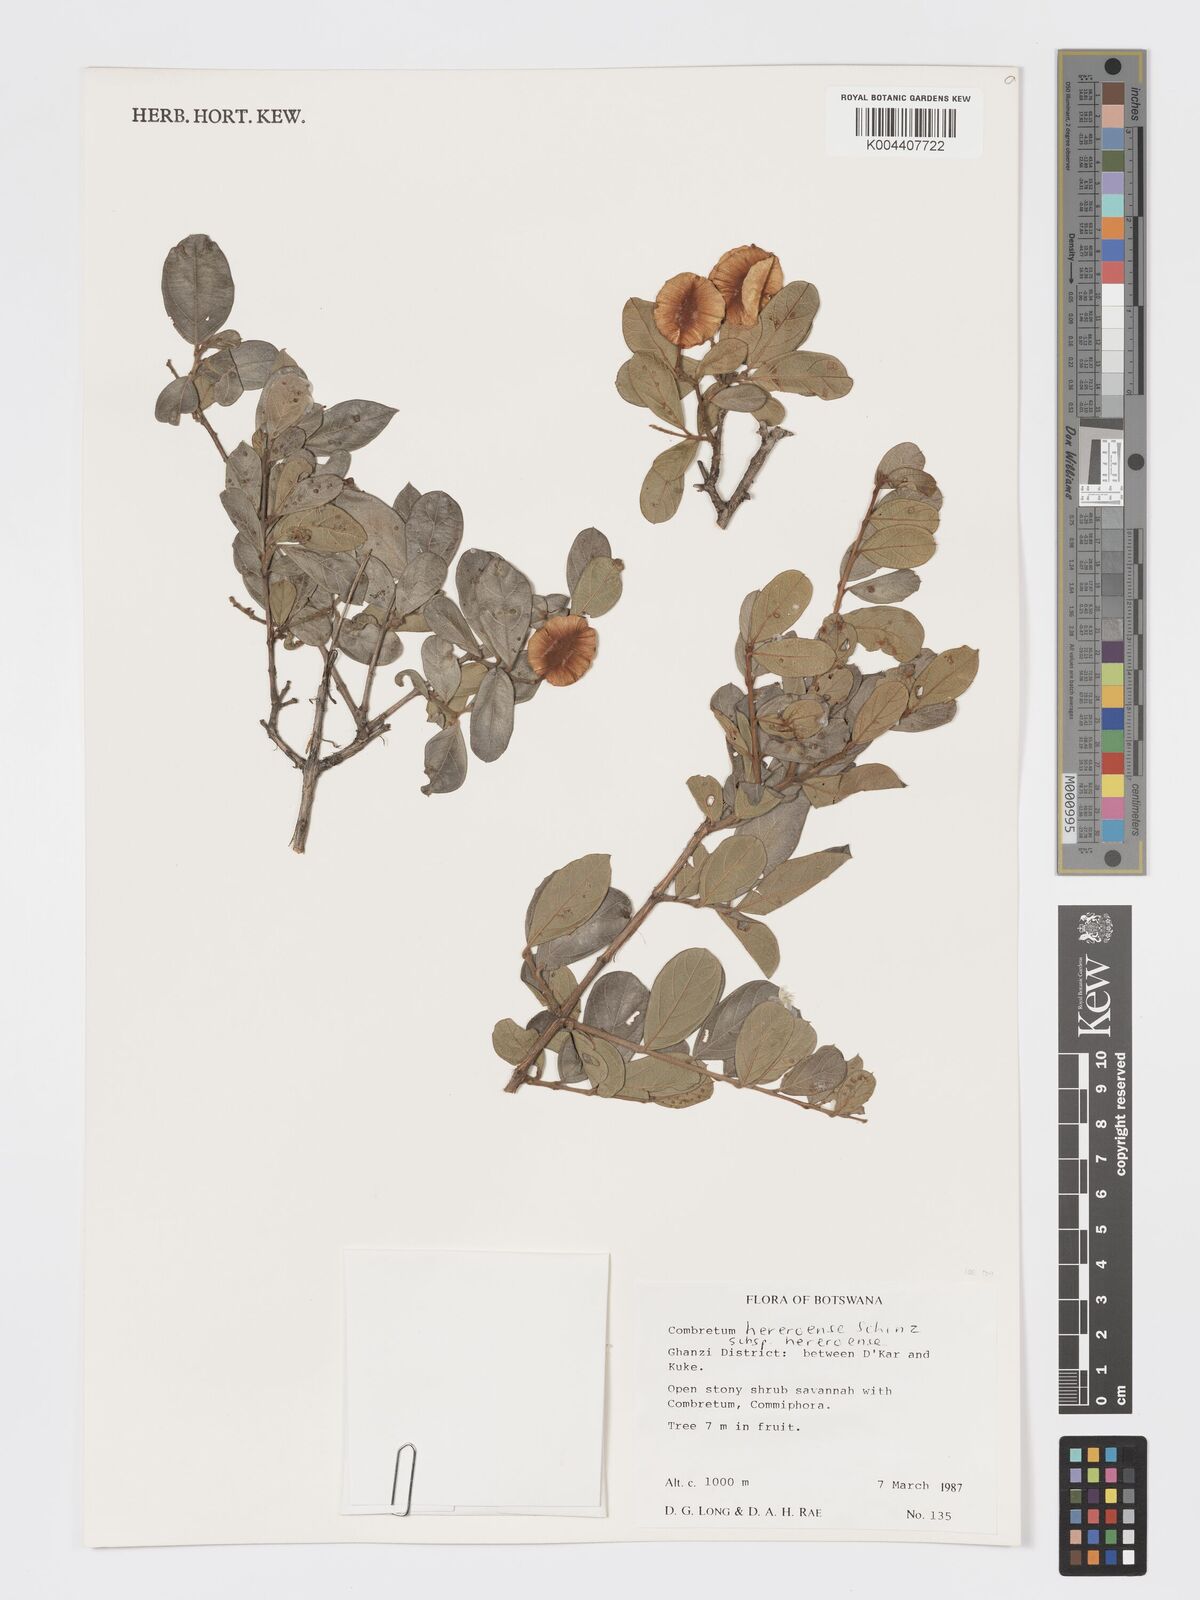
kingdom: Plantae
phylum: Tracheophyta
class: Magnoliopsida
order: Myrtales
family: Combretaceae
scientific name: Combretaceae
